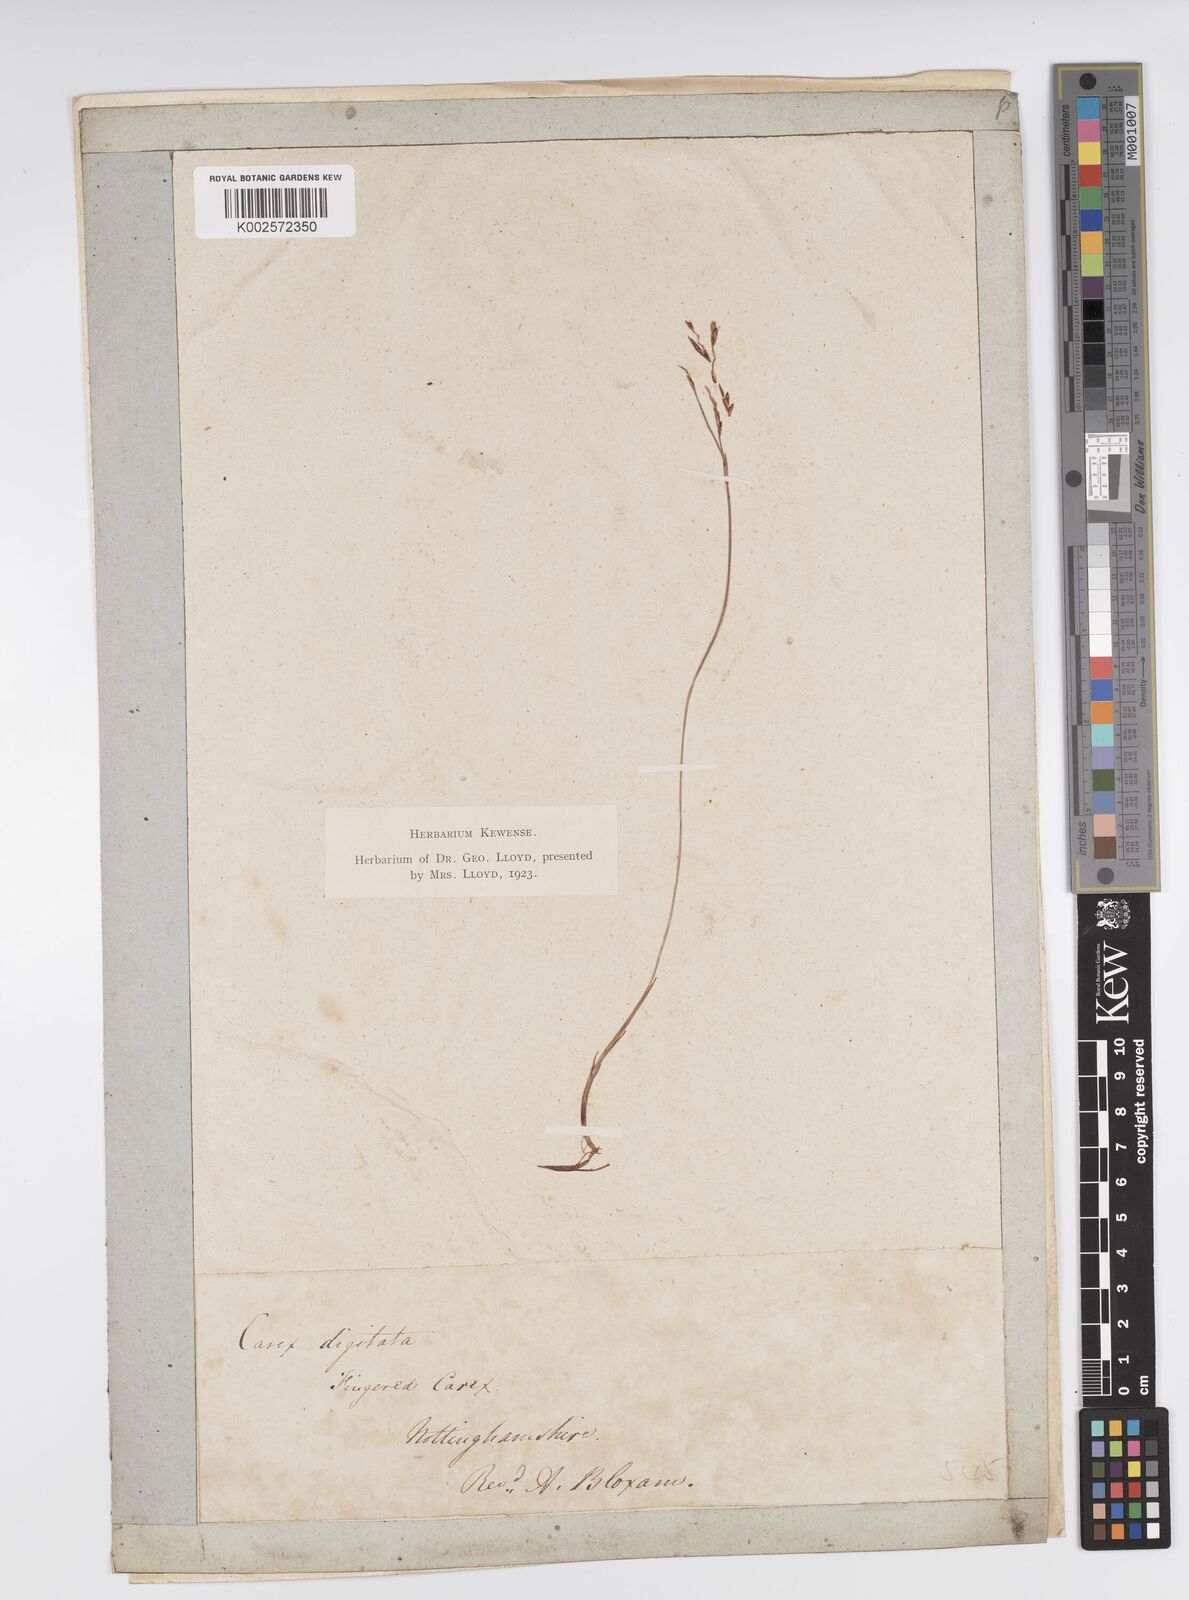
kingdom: Plantae
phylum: Tracheophyta
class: Liliopsida
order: Poales
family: Cyperaceae
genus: Carex
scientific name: Carex digitata
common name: Fingered sedge
